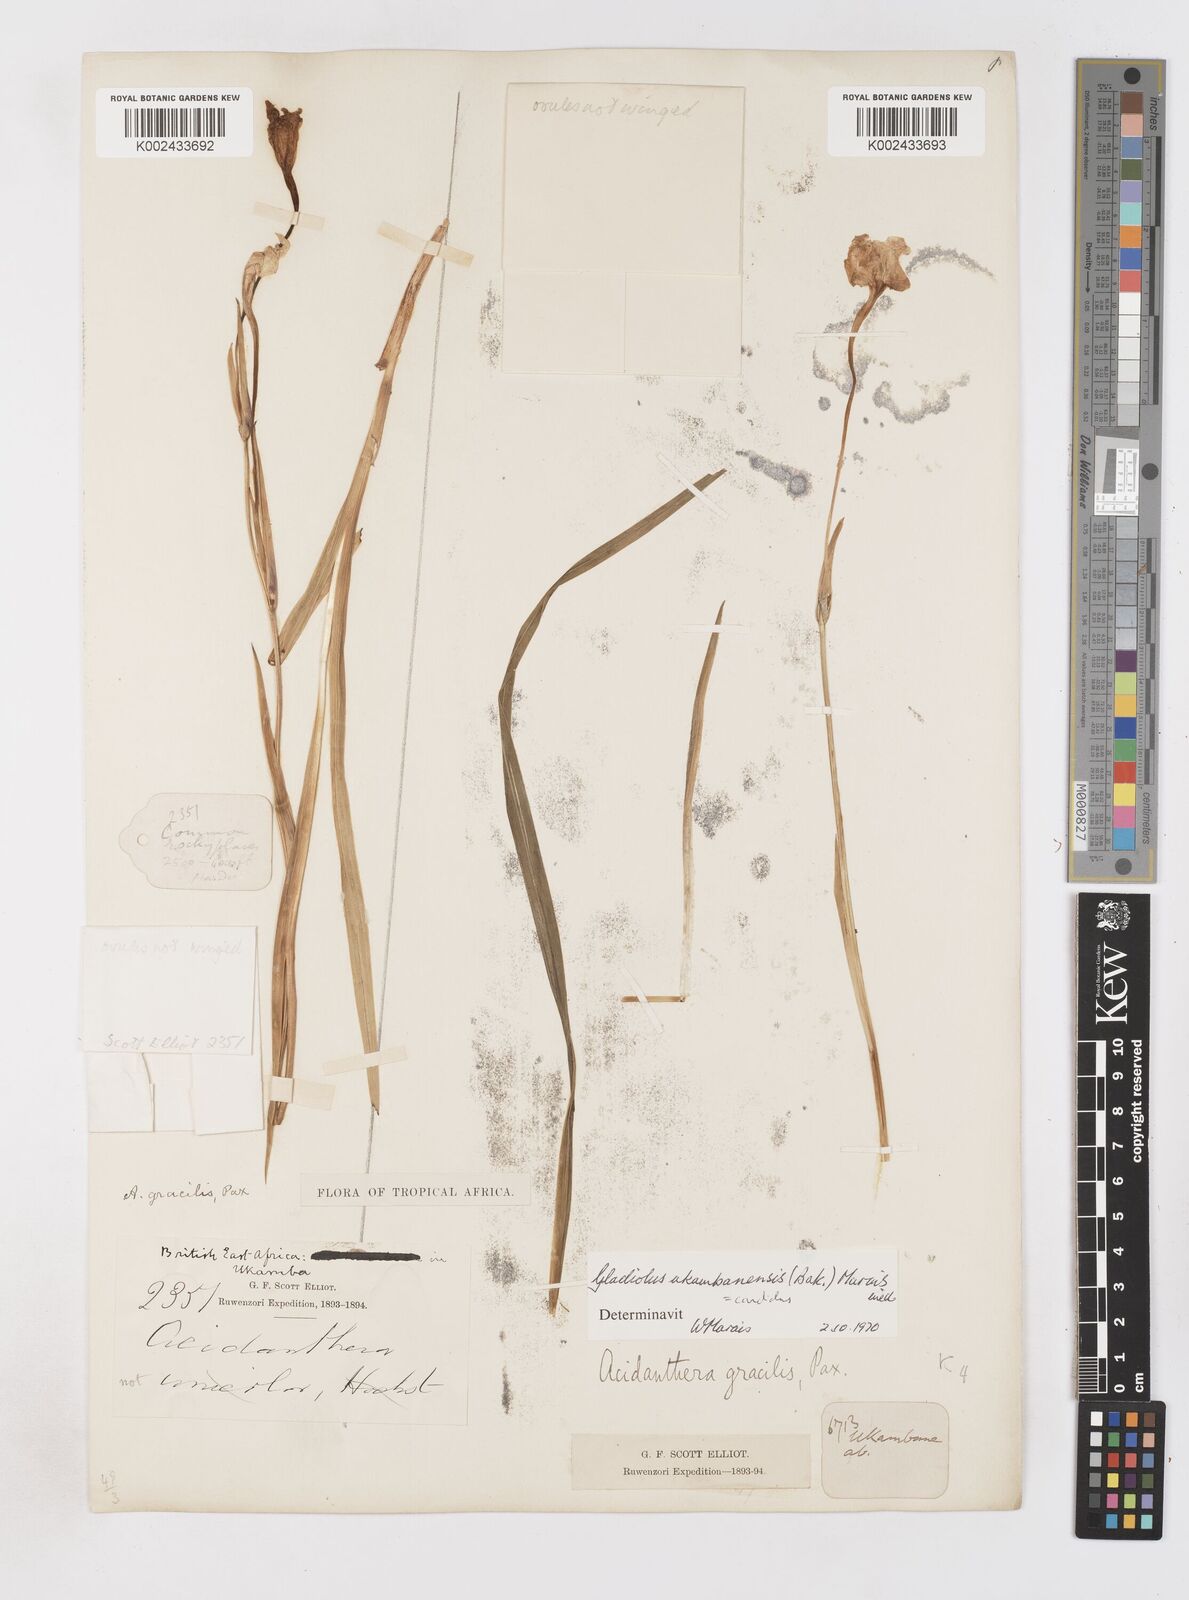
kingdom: Plantae
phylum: Tracheophyta
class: Liliopsida
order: Asparagales
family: Iridaceae
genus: Gladiolus
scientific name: Gladiolus candidus
